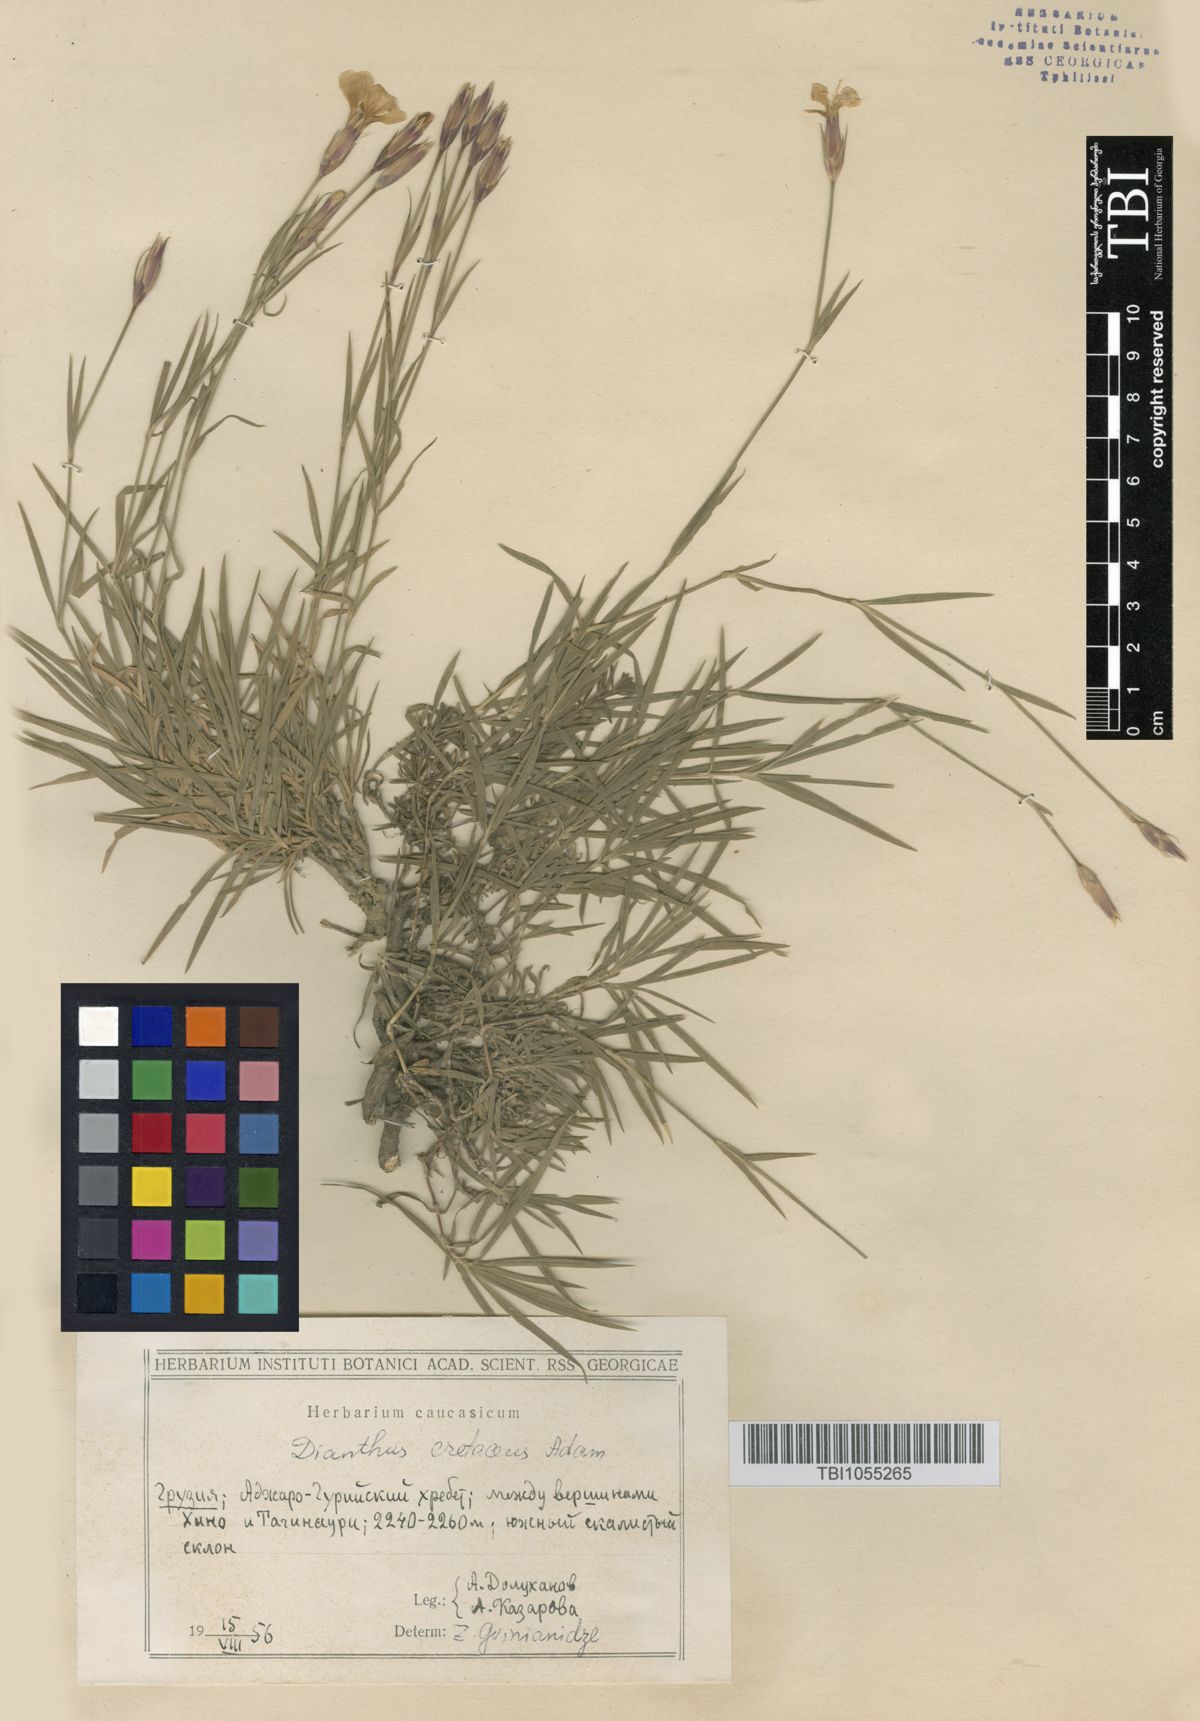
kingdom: Plantae
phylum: Tracheophyta
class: Magnoliopsida
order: Caryophyllales
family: Caryophyllaceae
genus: Dianthus
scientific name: Dianthus cretaceus
